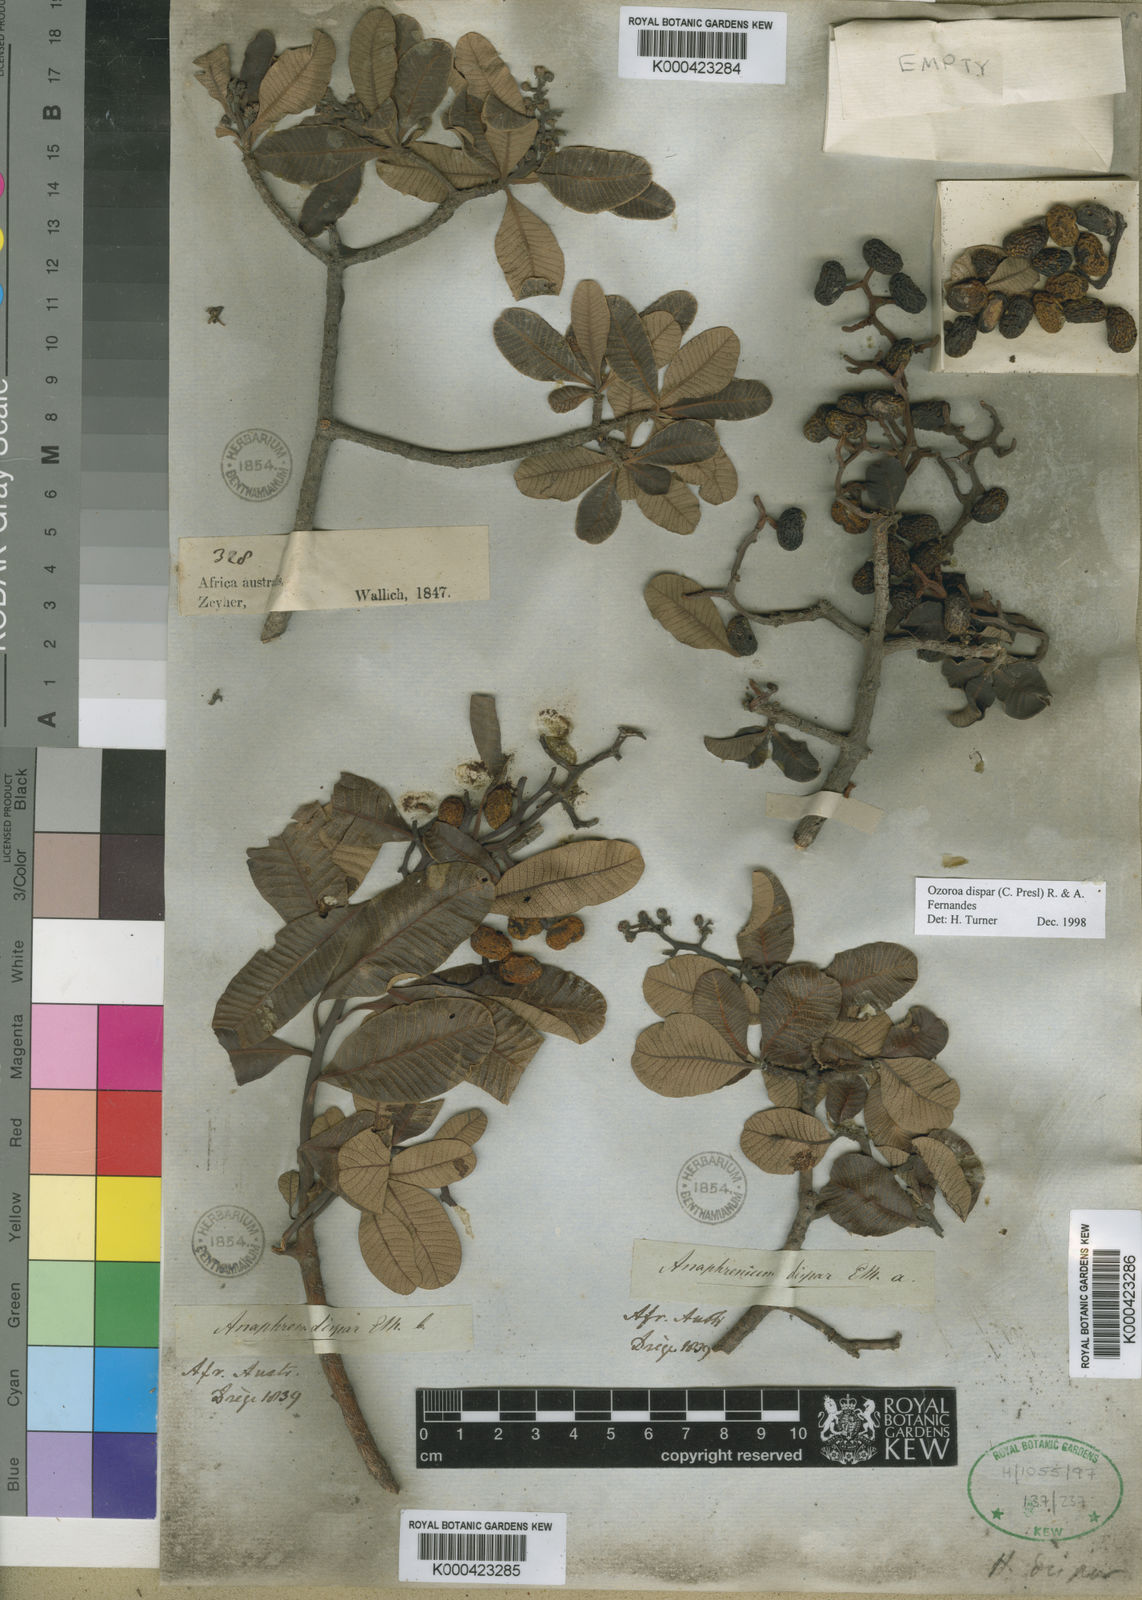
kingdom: Plantae
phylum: Tracheophyta
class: Magnoliopsida
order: Sapindales
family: Anacardiaceae
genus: Ozoroa
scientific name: Ozoroa dispar
